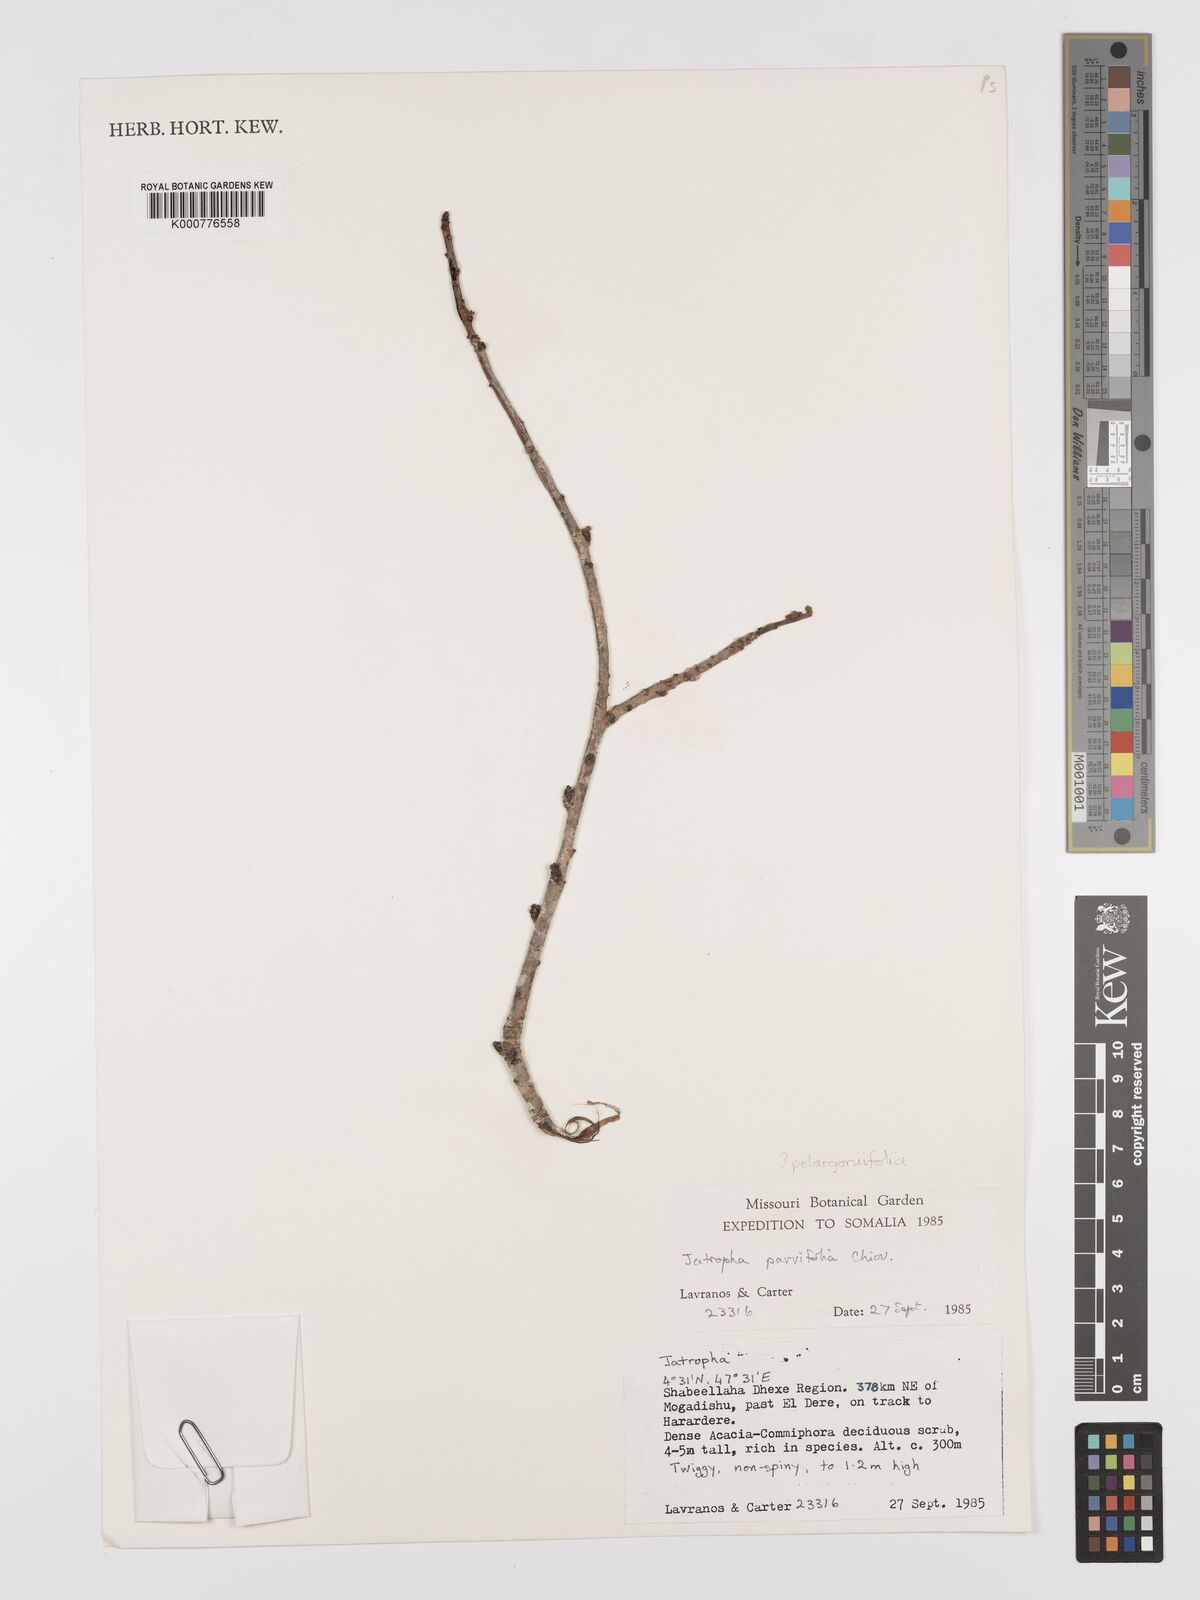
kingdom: Plantae
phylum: Tracheophyta
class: Magnoliopsida
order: Malpighiales
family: Euphorbiaceae
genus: Jatropha
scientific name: Jatropha pelargoniifolia
